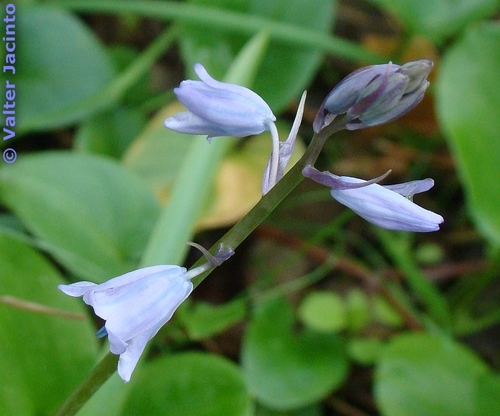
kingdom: Plantae
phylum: Tracheophyta
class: Liliopsida
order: Asparagales
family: Asparagaceae
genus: Hyacinthoides
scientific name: Hyacinthoides hispanica
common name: Spanish bluebell
